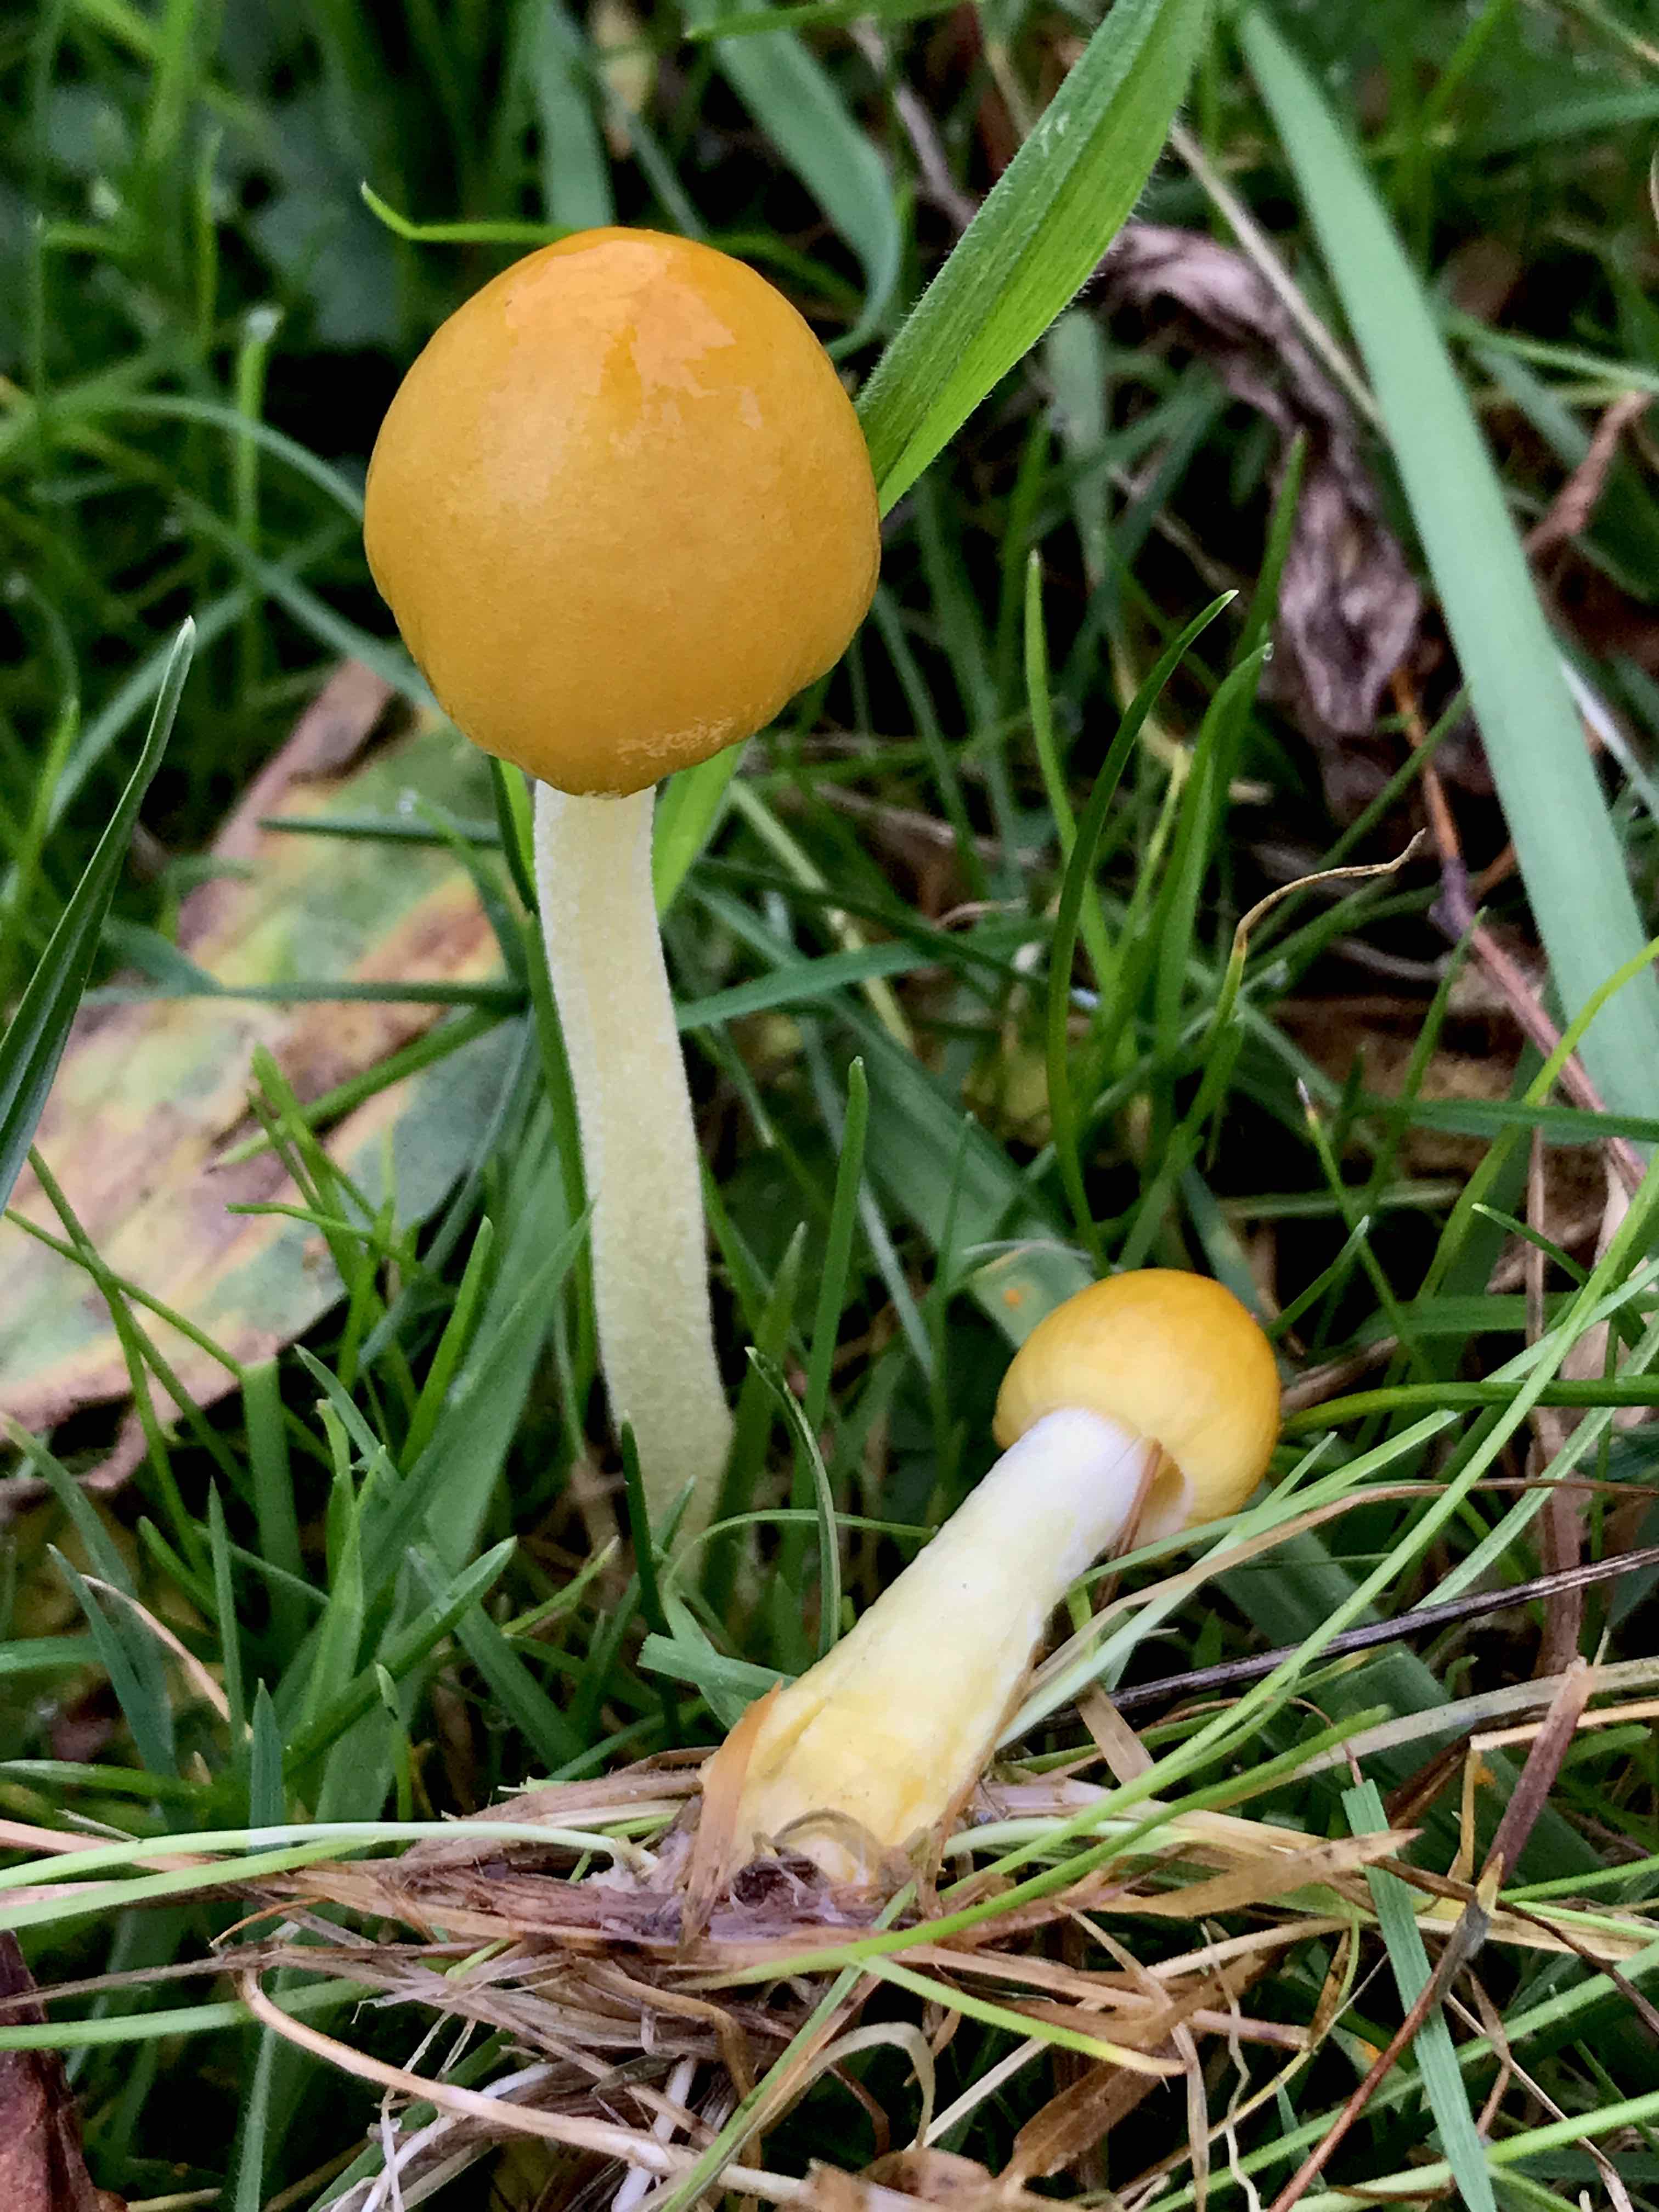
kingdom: Fungi
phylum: Basidiomycota
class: Agaricomycetes
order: Agaricales
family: Bolbitiaceae
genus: Bolbitius
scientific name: Bolbitius titubans
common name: almindelig gulhat
